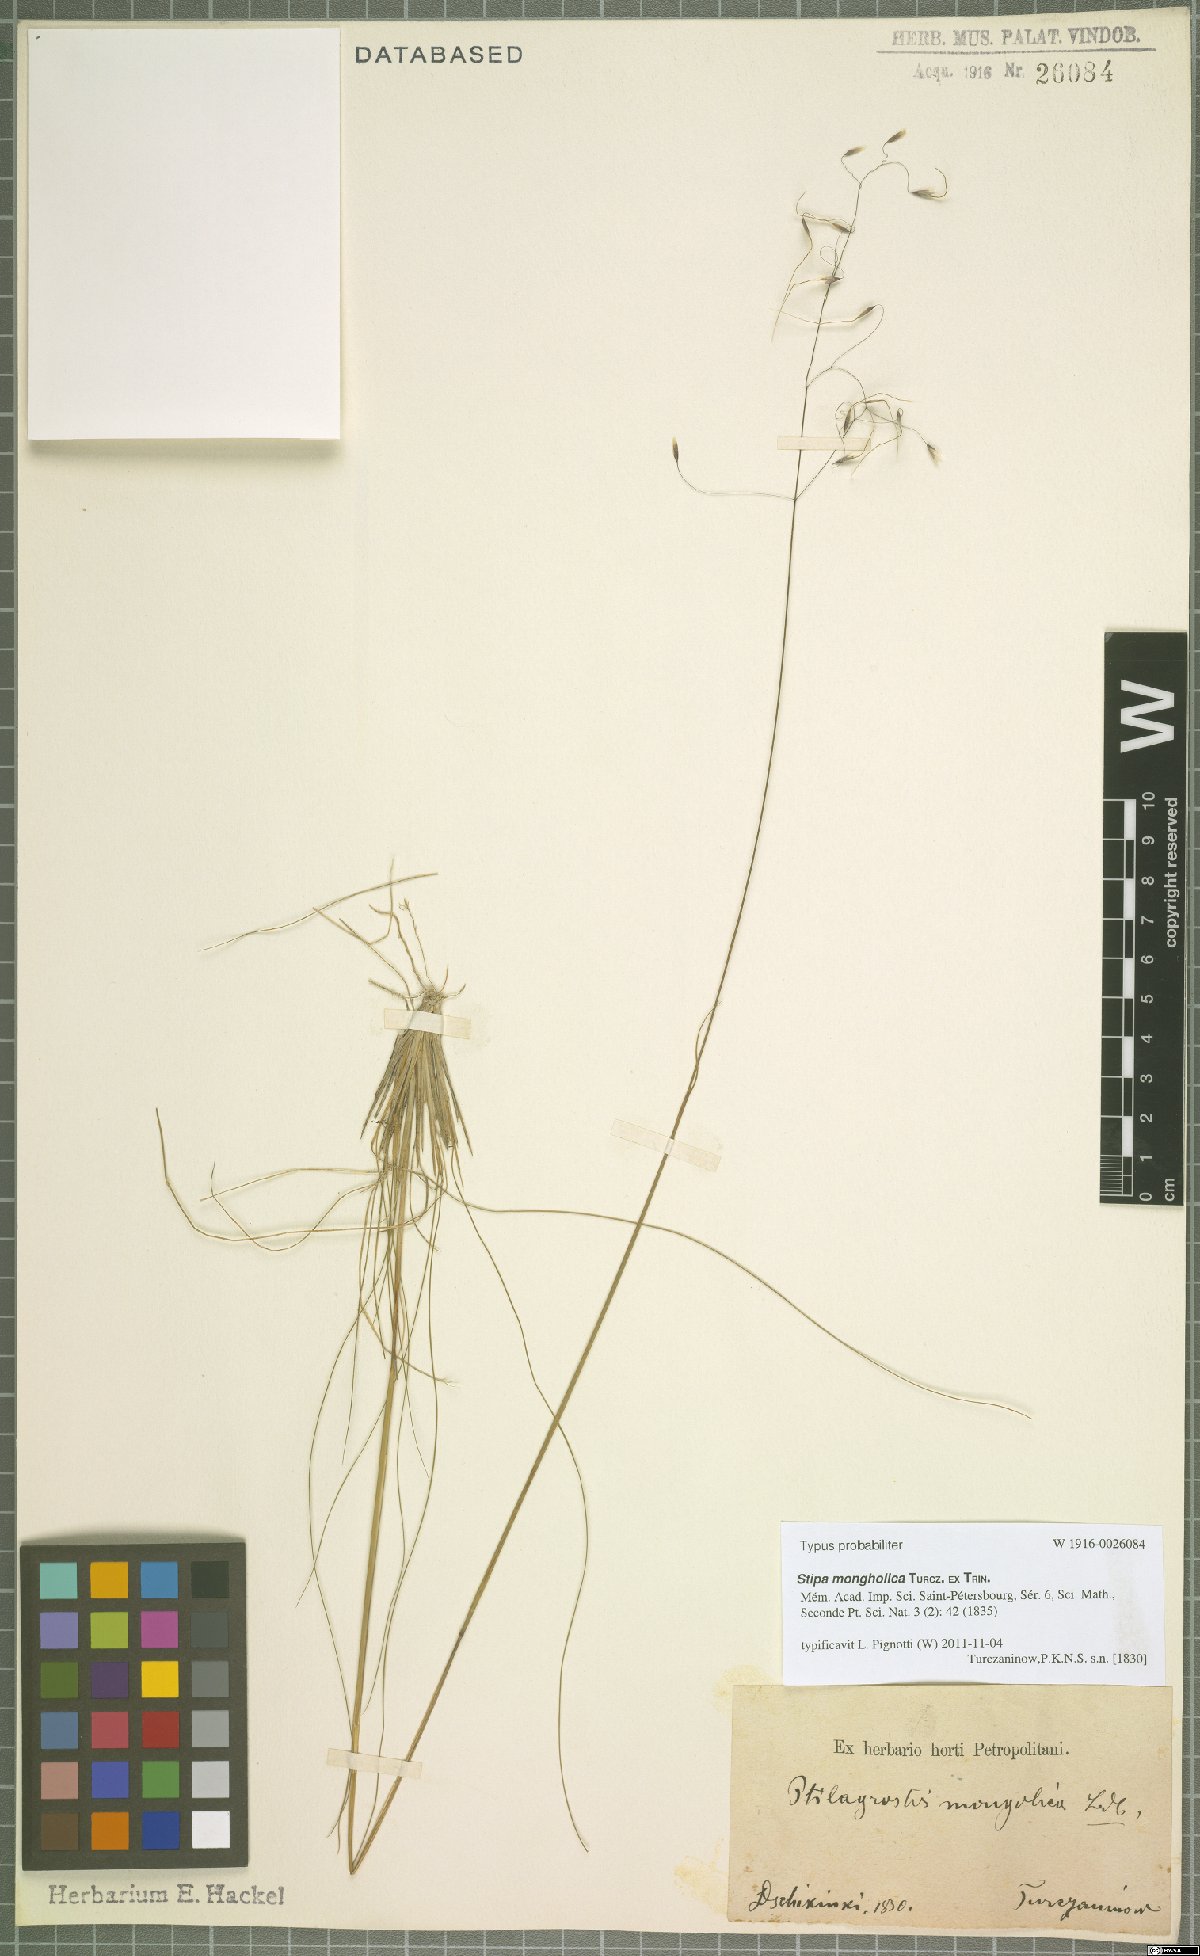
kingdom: Plantae
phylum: Tracheophyta
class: Liliopsida
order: Poales
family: Poaceae
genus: Ptilagrostis
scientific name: Ptilagrostis mongholica
